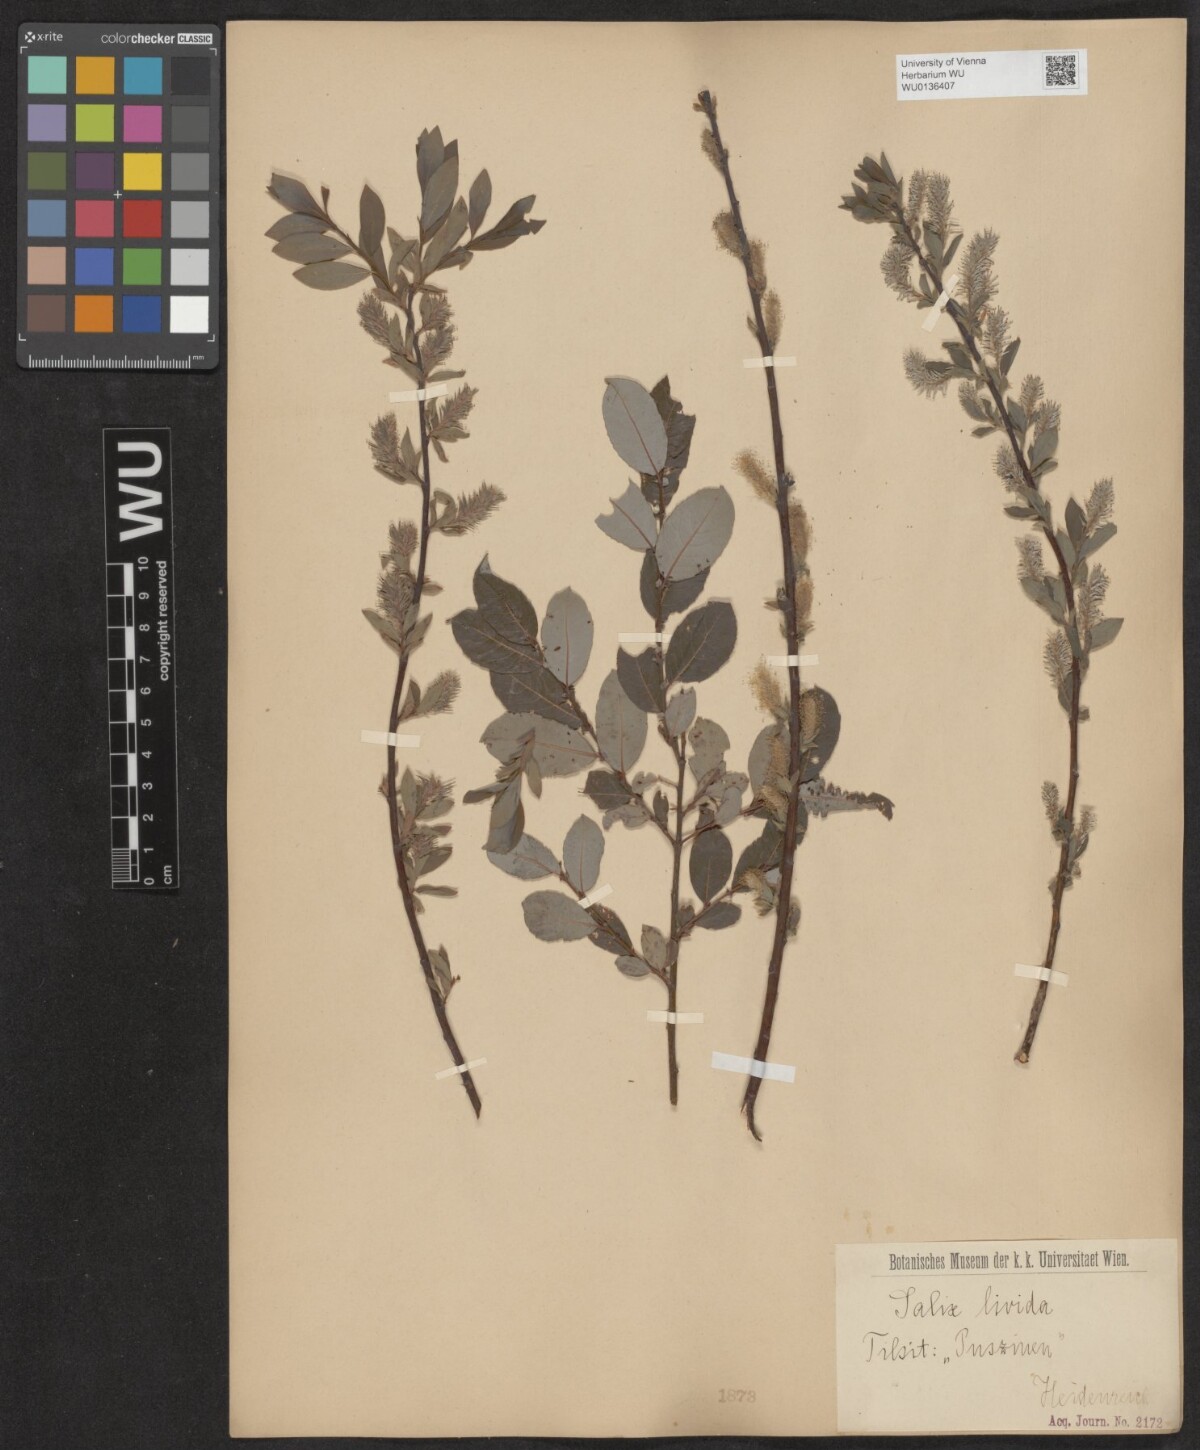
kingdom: Plantae
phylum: Tracheophyta
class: Magnoliopsida
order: Malpighiales
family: Salicaceae
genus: Salix
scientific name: Salix lanata
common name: Woolly willow
